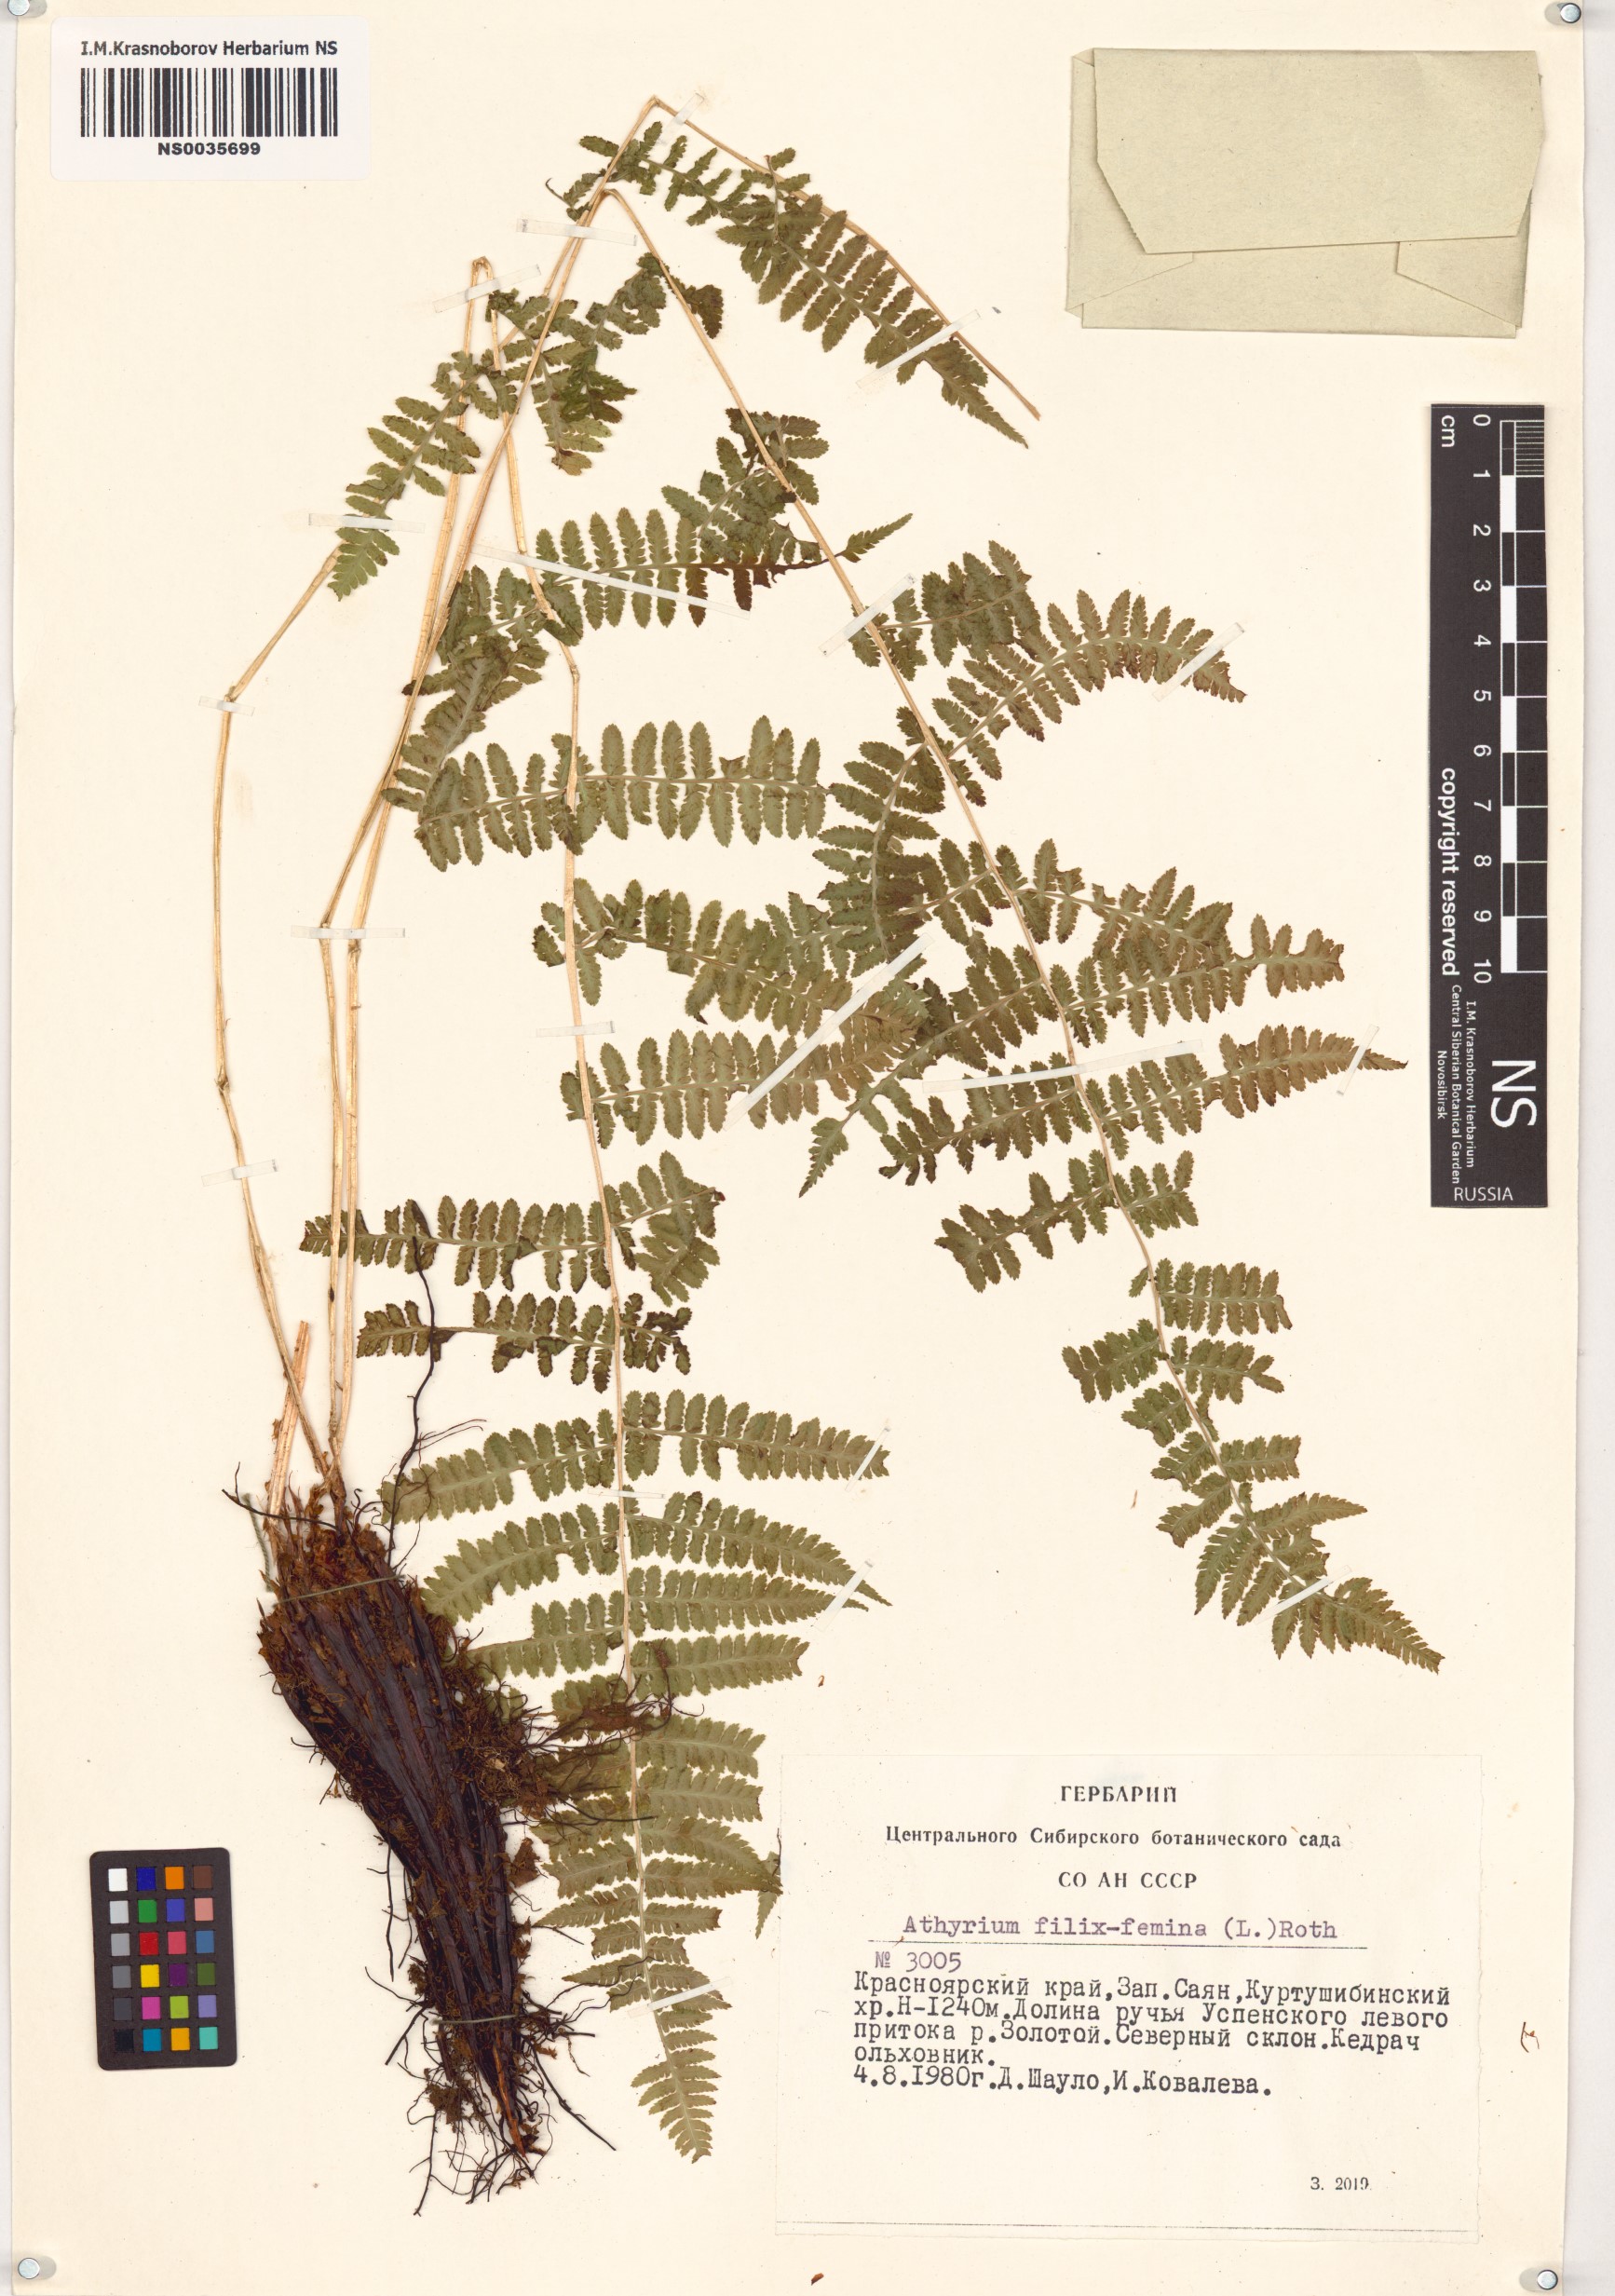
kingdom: Plantae
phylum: Tracheophyta
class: Polypodiopsida
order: Polypodiales
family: Athyriaceae
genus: Athyrium
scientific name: Athyrium filix-femina
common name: Lady fern
